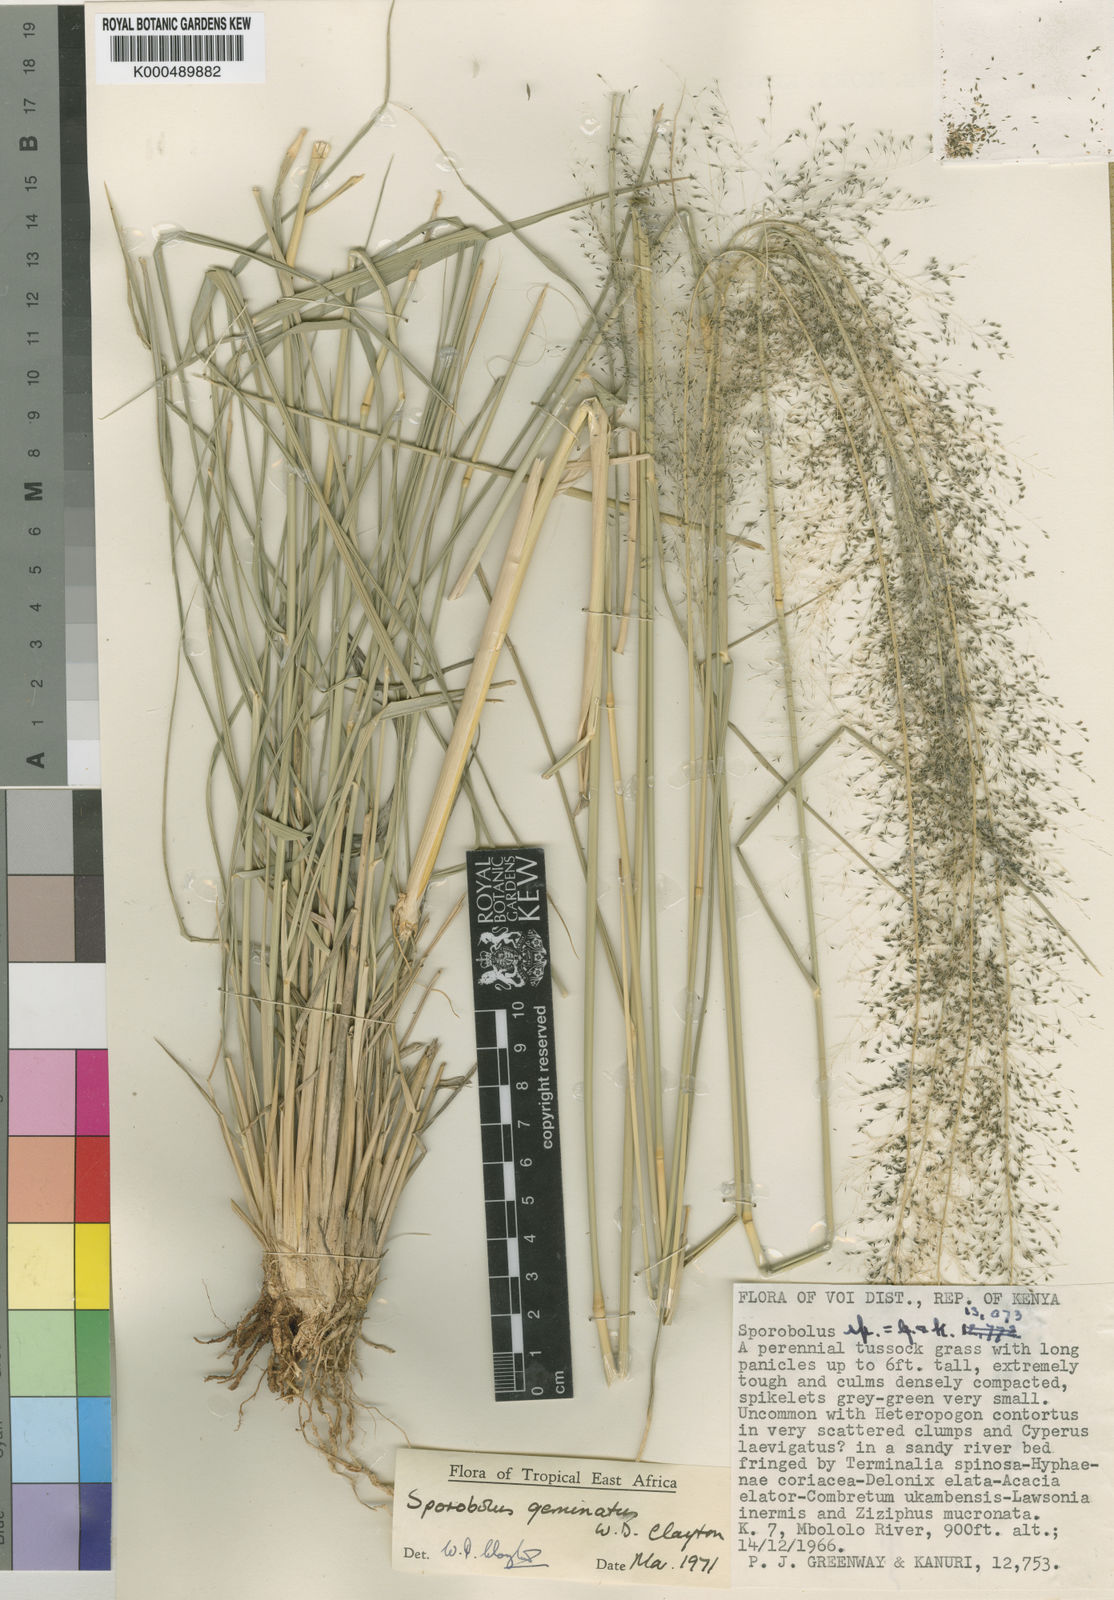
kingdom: Plantae
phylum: Tracheophyta
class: Liliopsida
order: Poales
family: Poaceae
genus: Sporobolus
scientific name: Sporobolus geminatus
